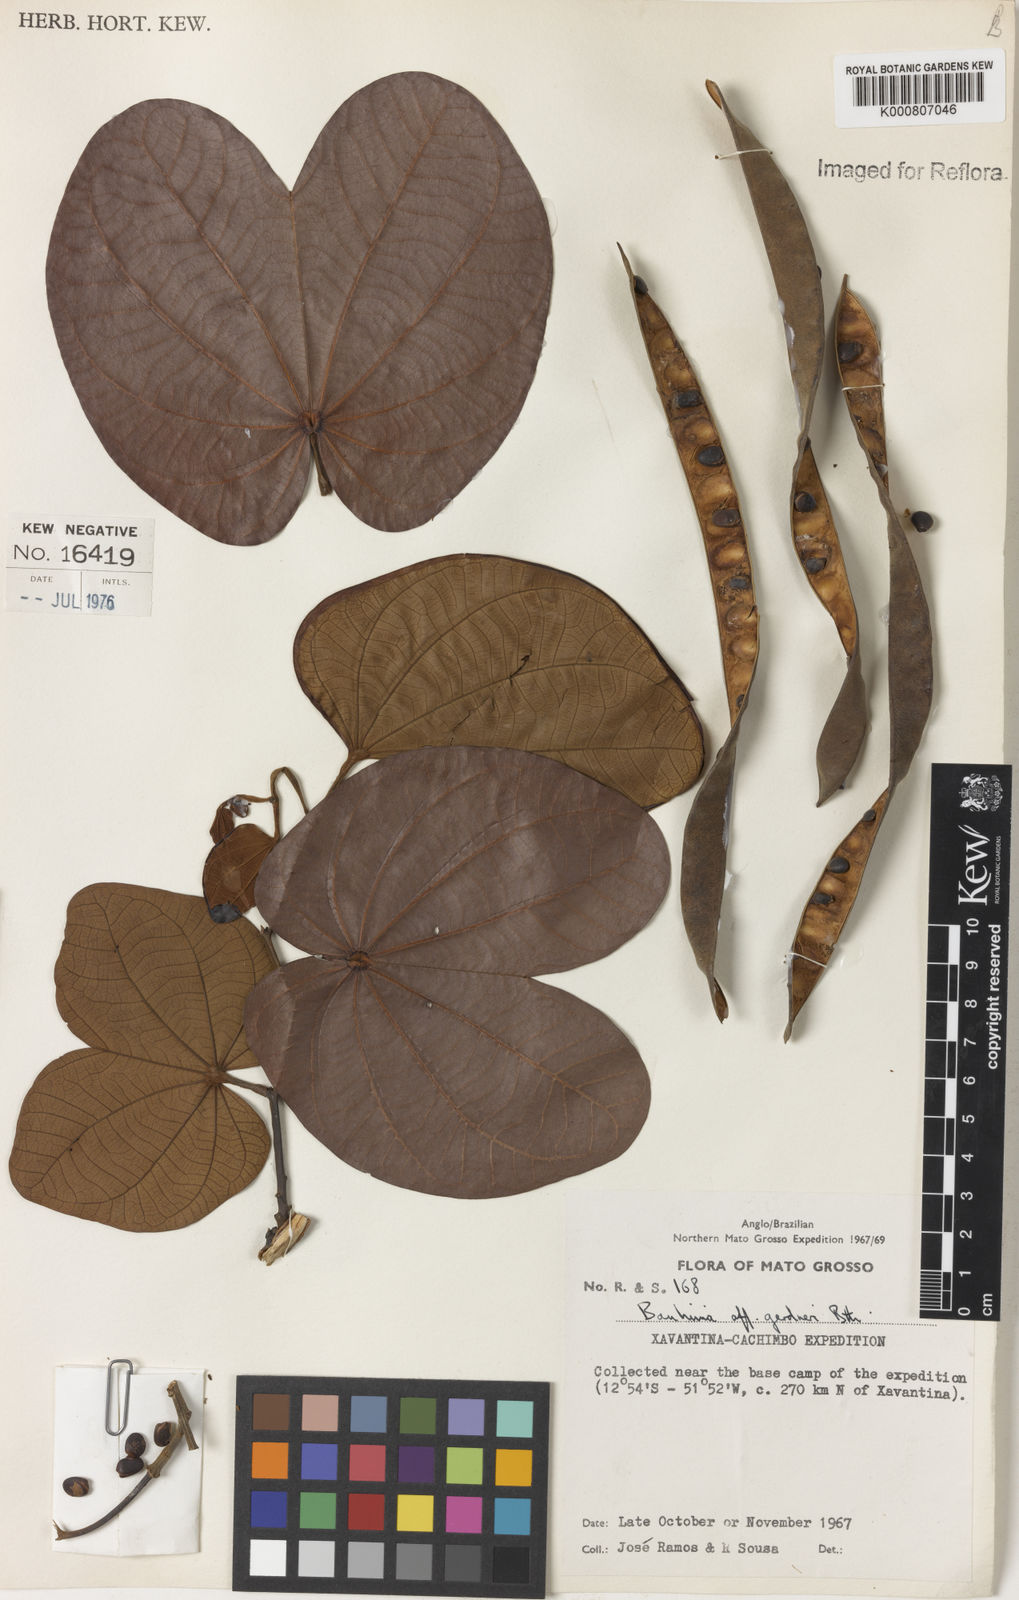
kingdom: Plantae
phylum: Tracheophyta
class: Magnoliopsida
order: Fabales
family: Fabaceae
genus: Bauhinia
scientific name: Bauhinia gardneri
